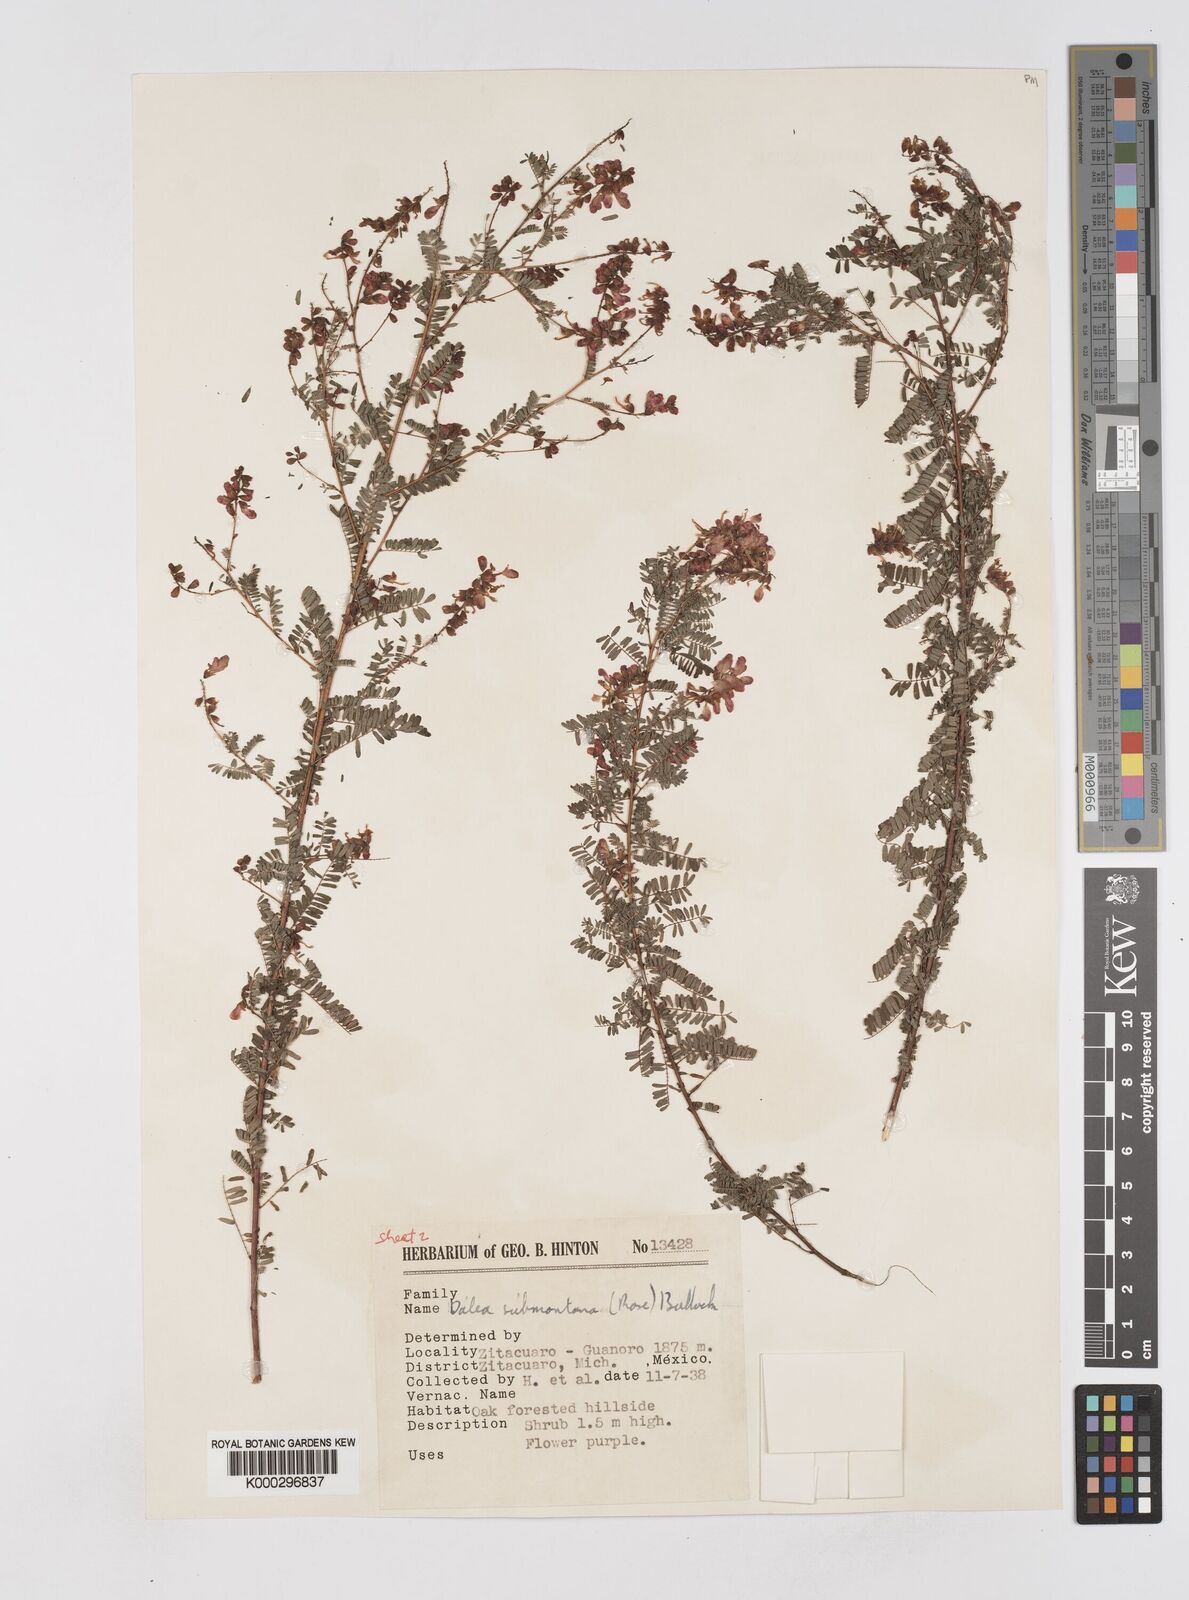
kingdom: Plantae
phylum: Tracheophyta
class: Magnoliopsida
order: Fabales
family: Fabaceae
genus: Marina
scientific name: Marina nutans
